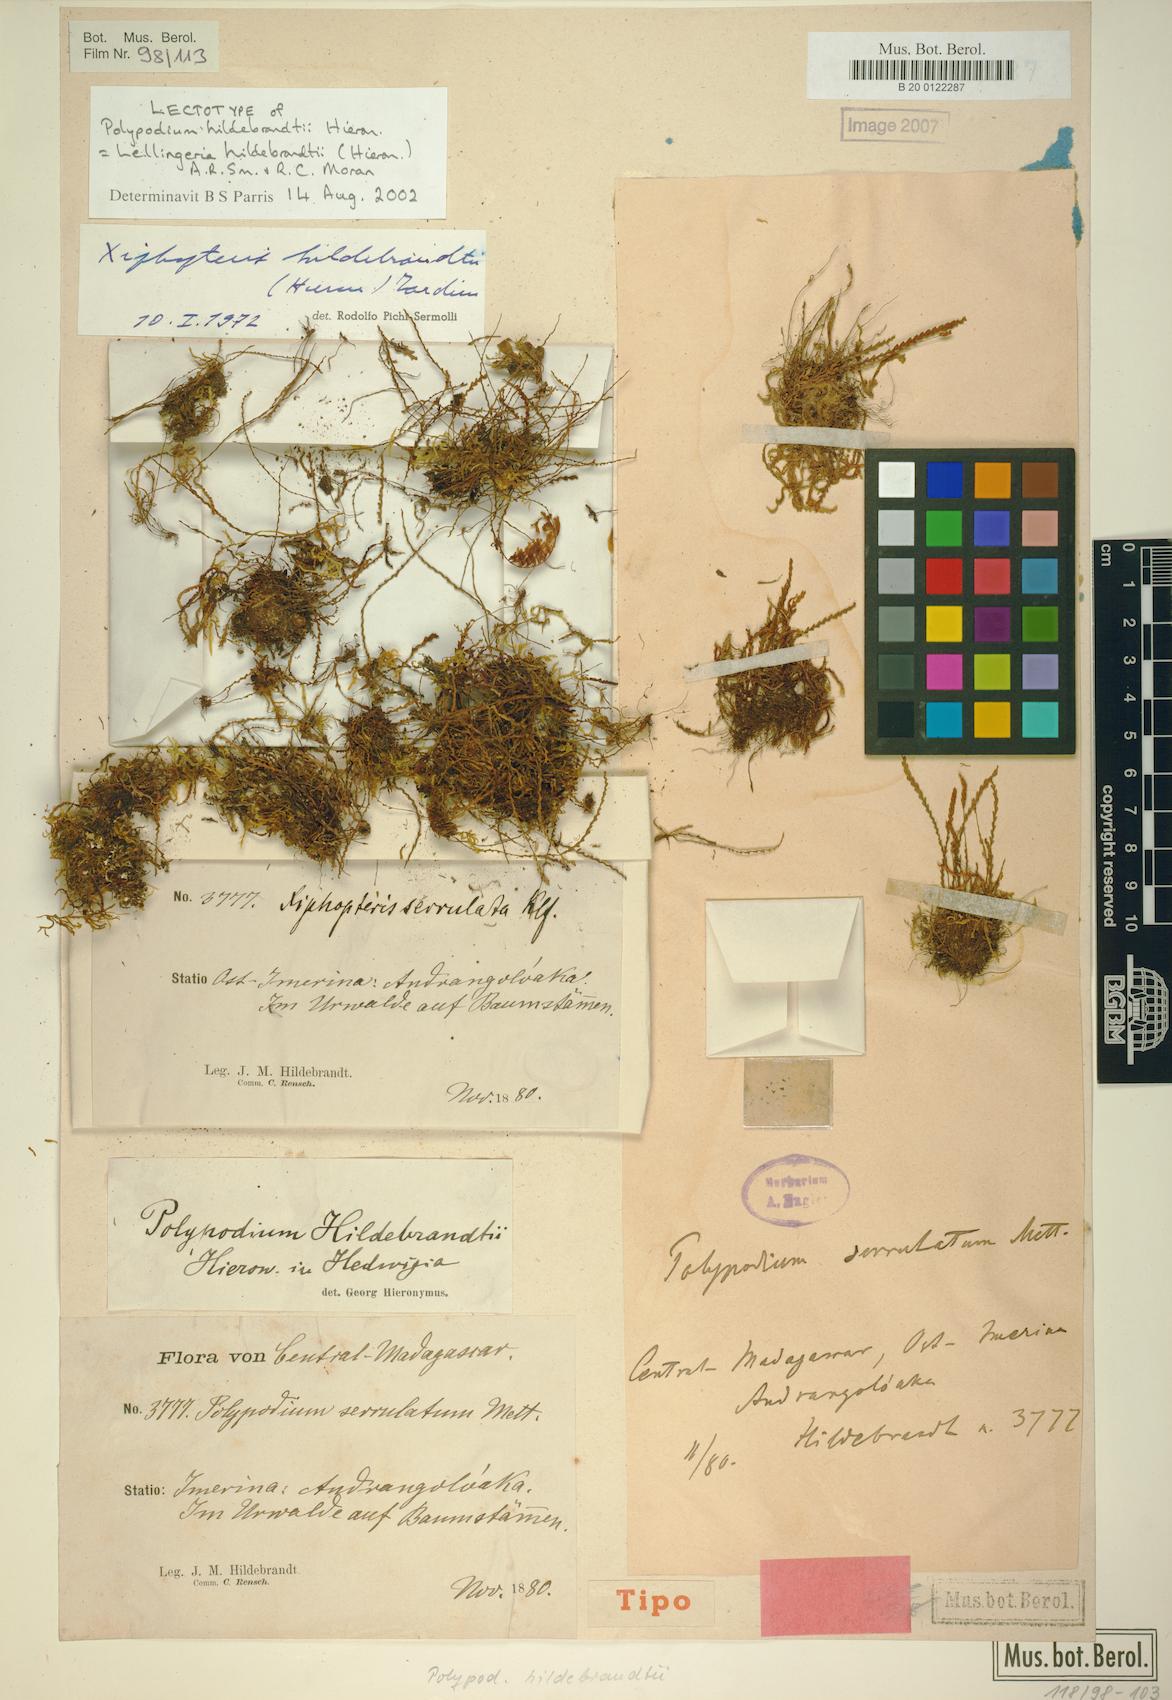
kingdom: Plantae
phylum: Tracheophyta
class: Polypodiopsida
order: Polypodiales
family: Polypodiaceae
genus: Stenogrammitis
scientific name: Stenogrammitis hildebrandtii
